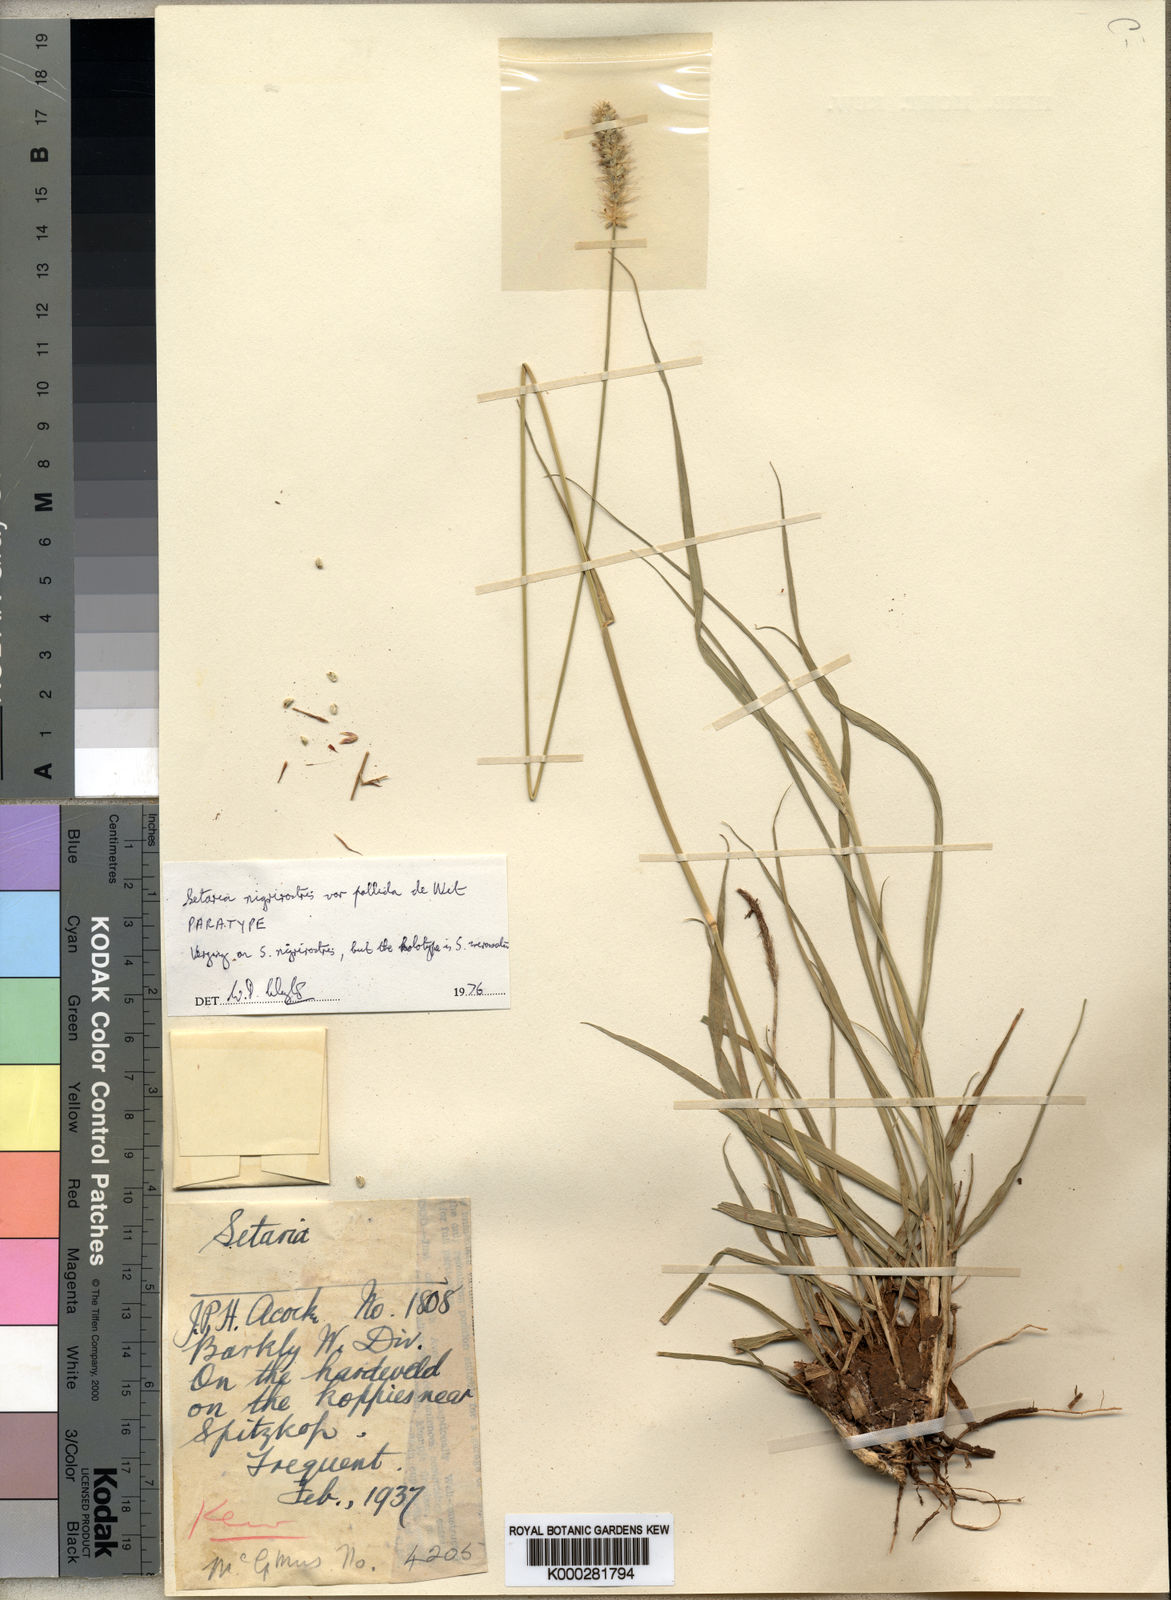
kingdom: Plantae
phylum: Tracheophyta
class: Liliopsida
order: Poales
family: Poaceae
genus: Setaria
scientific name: Setaria incrassata
